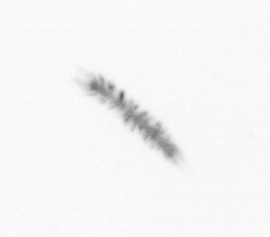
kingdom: Chromista
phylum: Ochrophyta
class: Bacillariophyceae
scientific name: Bacillariophyceae
